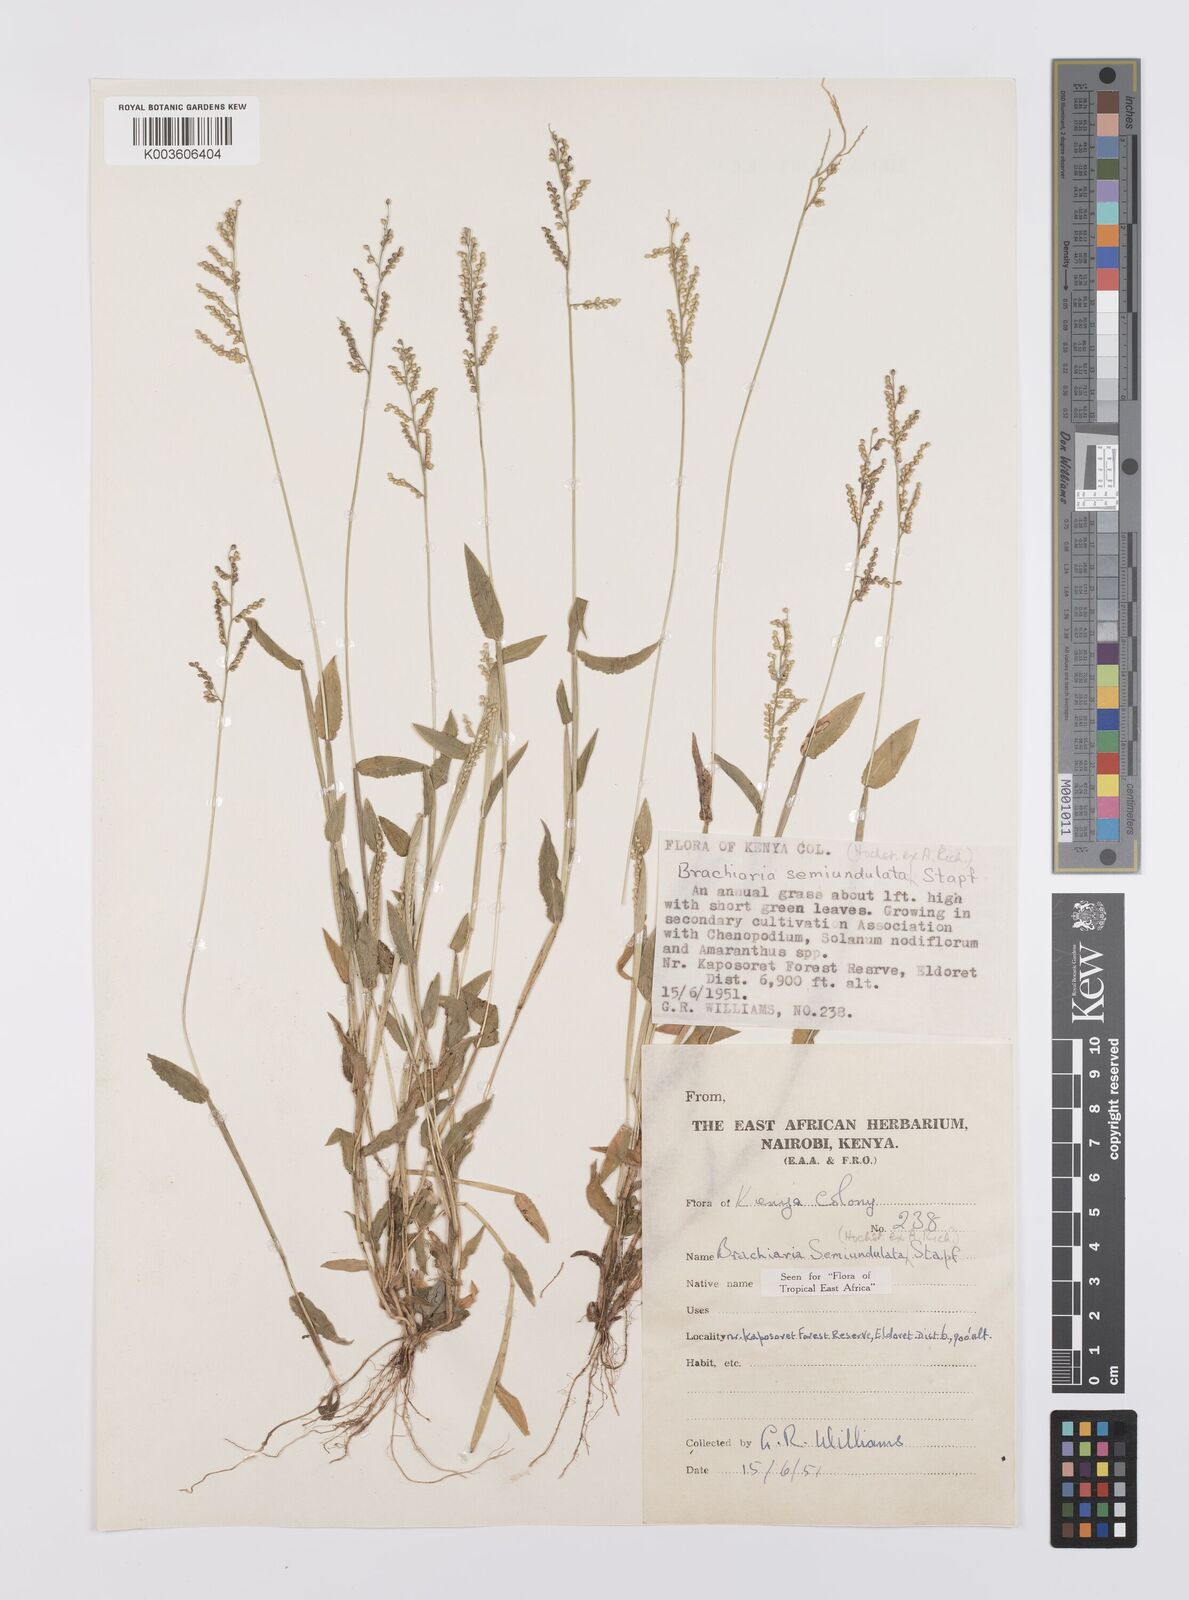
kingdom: Plantae
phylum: Tracheophyta
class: Liliopsida
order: Poales
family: Poaceae
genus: Urochloa
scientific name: Urochloa semiundulata
